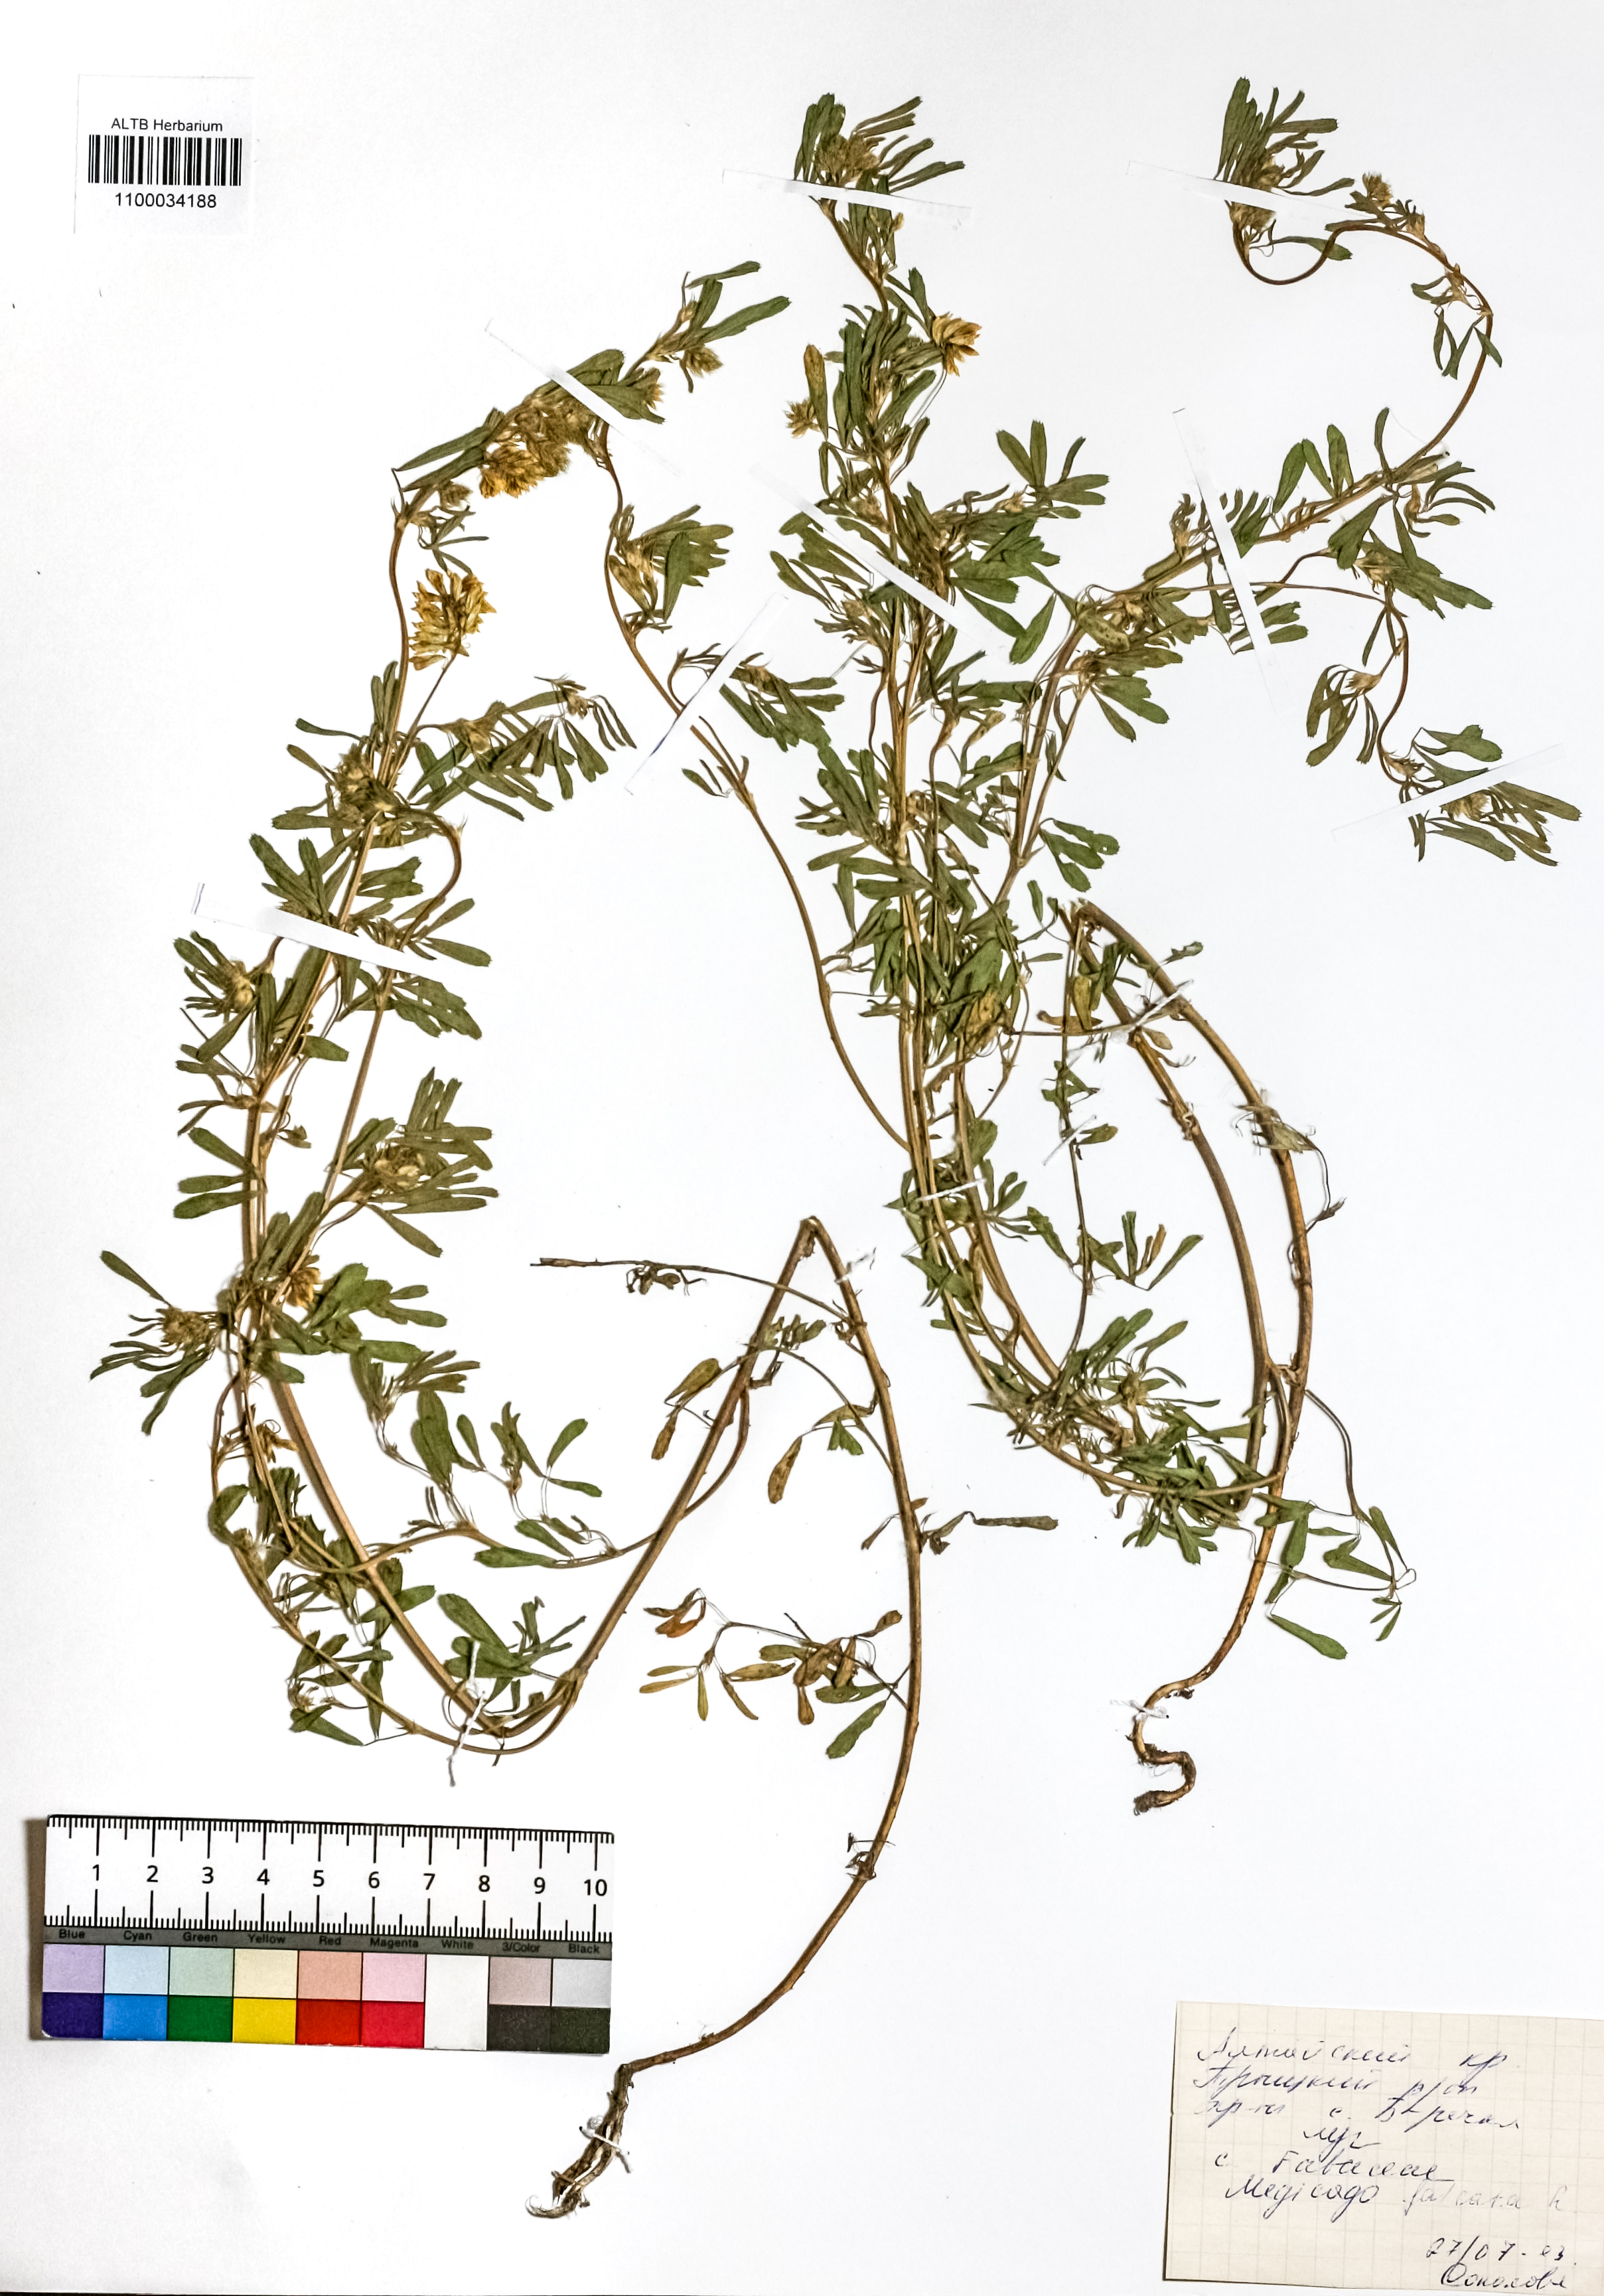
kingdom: Plantae
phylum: Tracheophyta
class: Magnoliopsida
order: Fabales
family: Fabaceae
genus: Medicago
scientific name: Medicago lupulina
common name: Black medick
